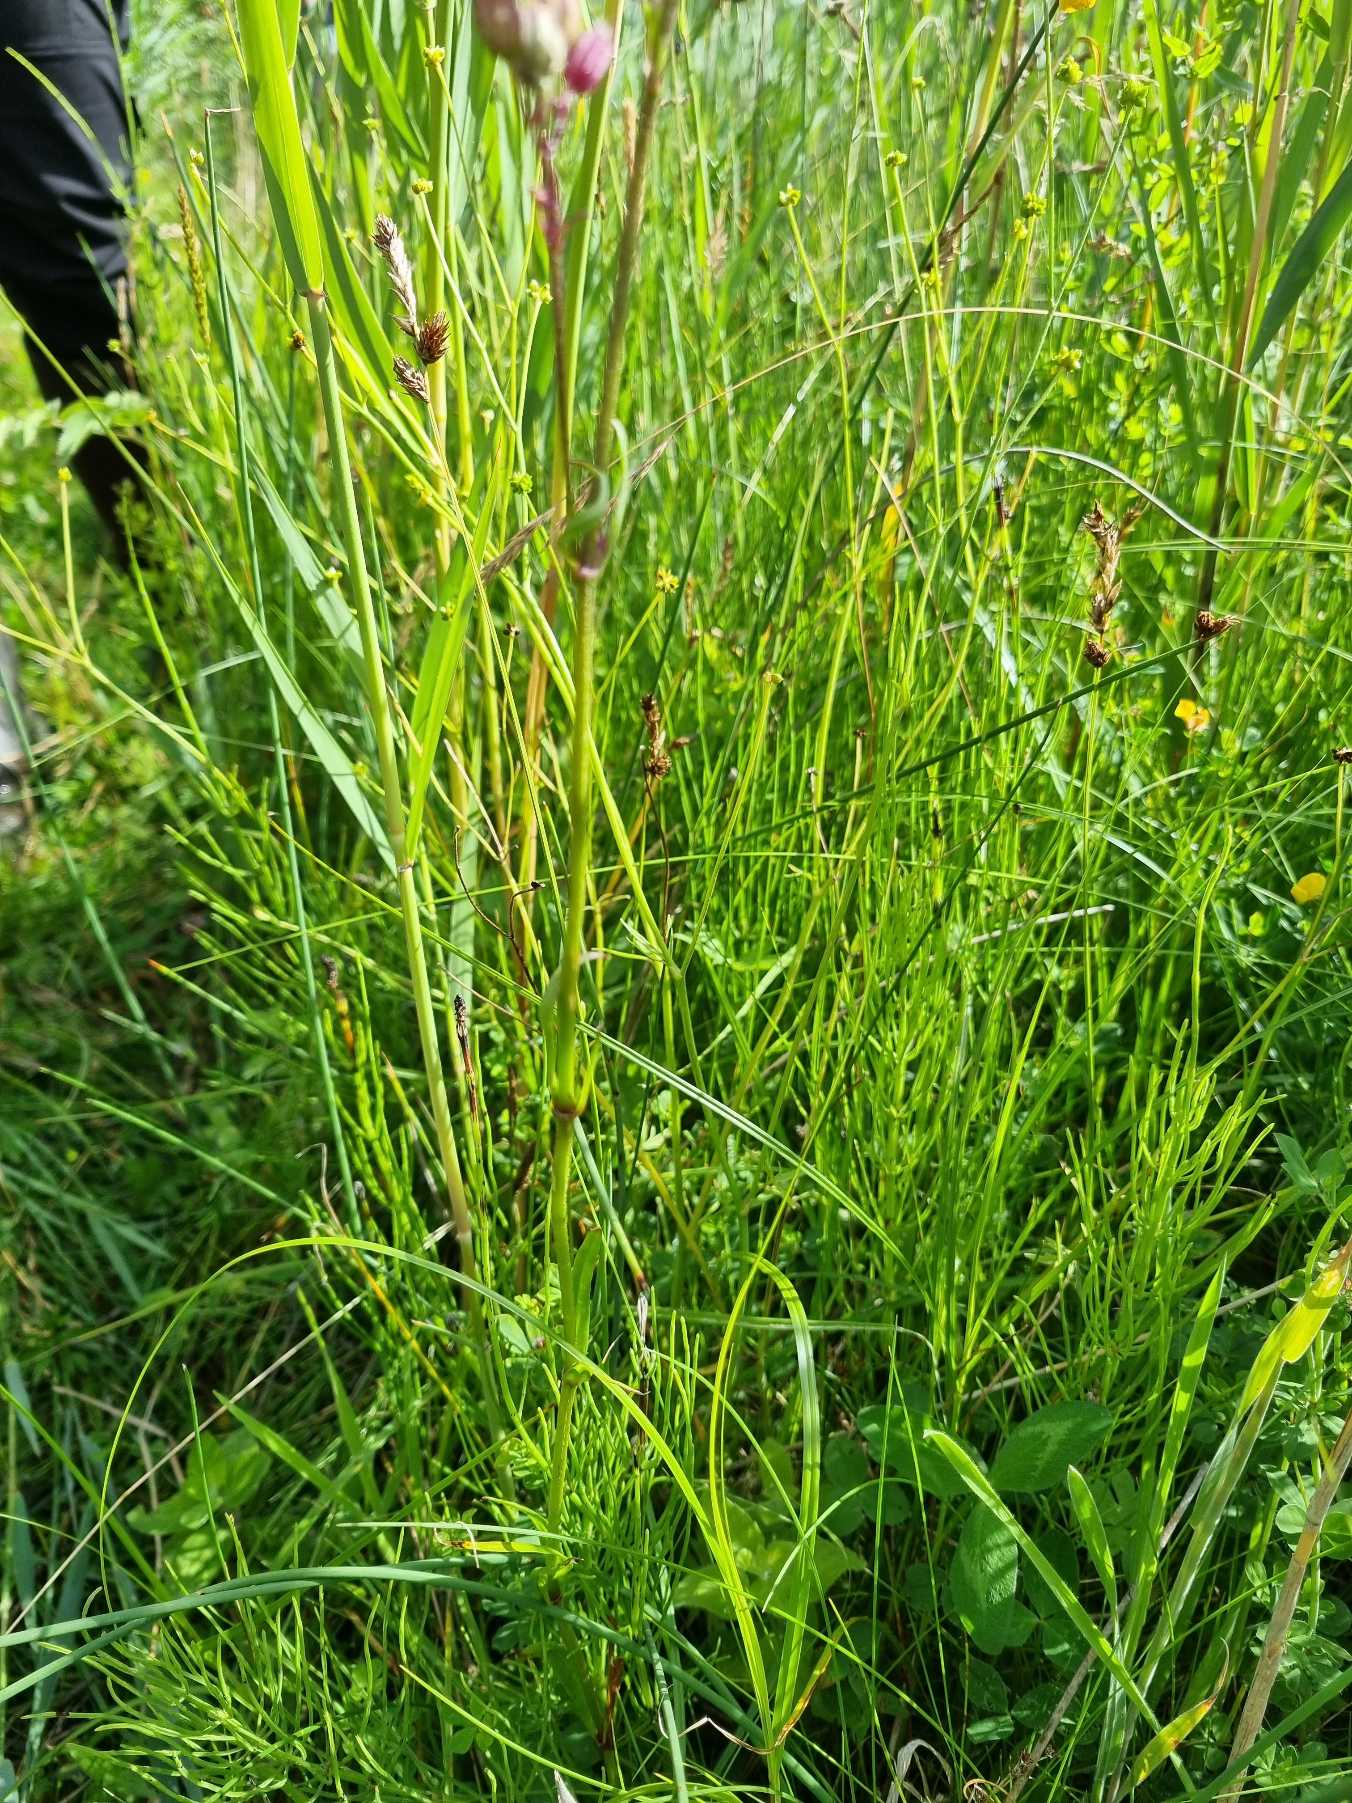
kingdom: Plantae
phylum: Tracheophyta
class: Magnoliopsida
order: Caryophyllales
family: Caryophyllaceae
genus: Silene
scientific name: Silene flos-cuculi
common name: Trævlekrone
